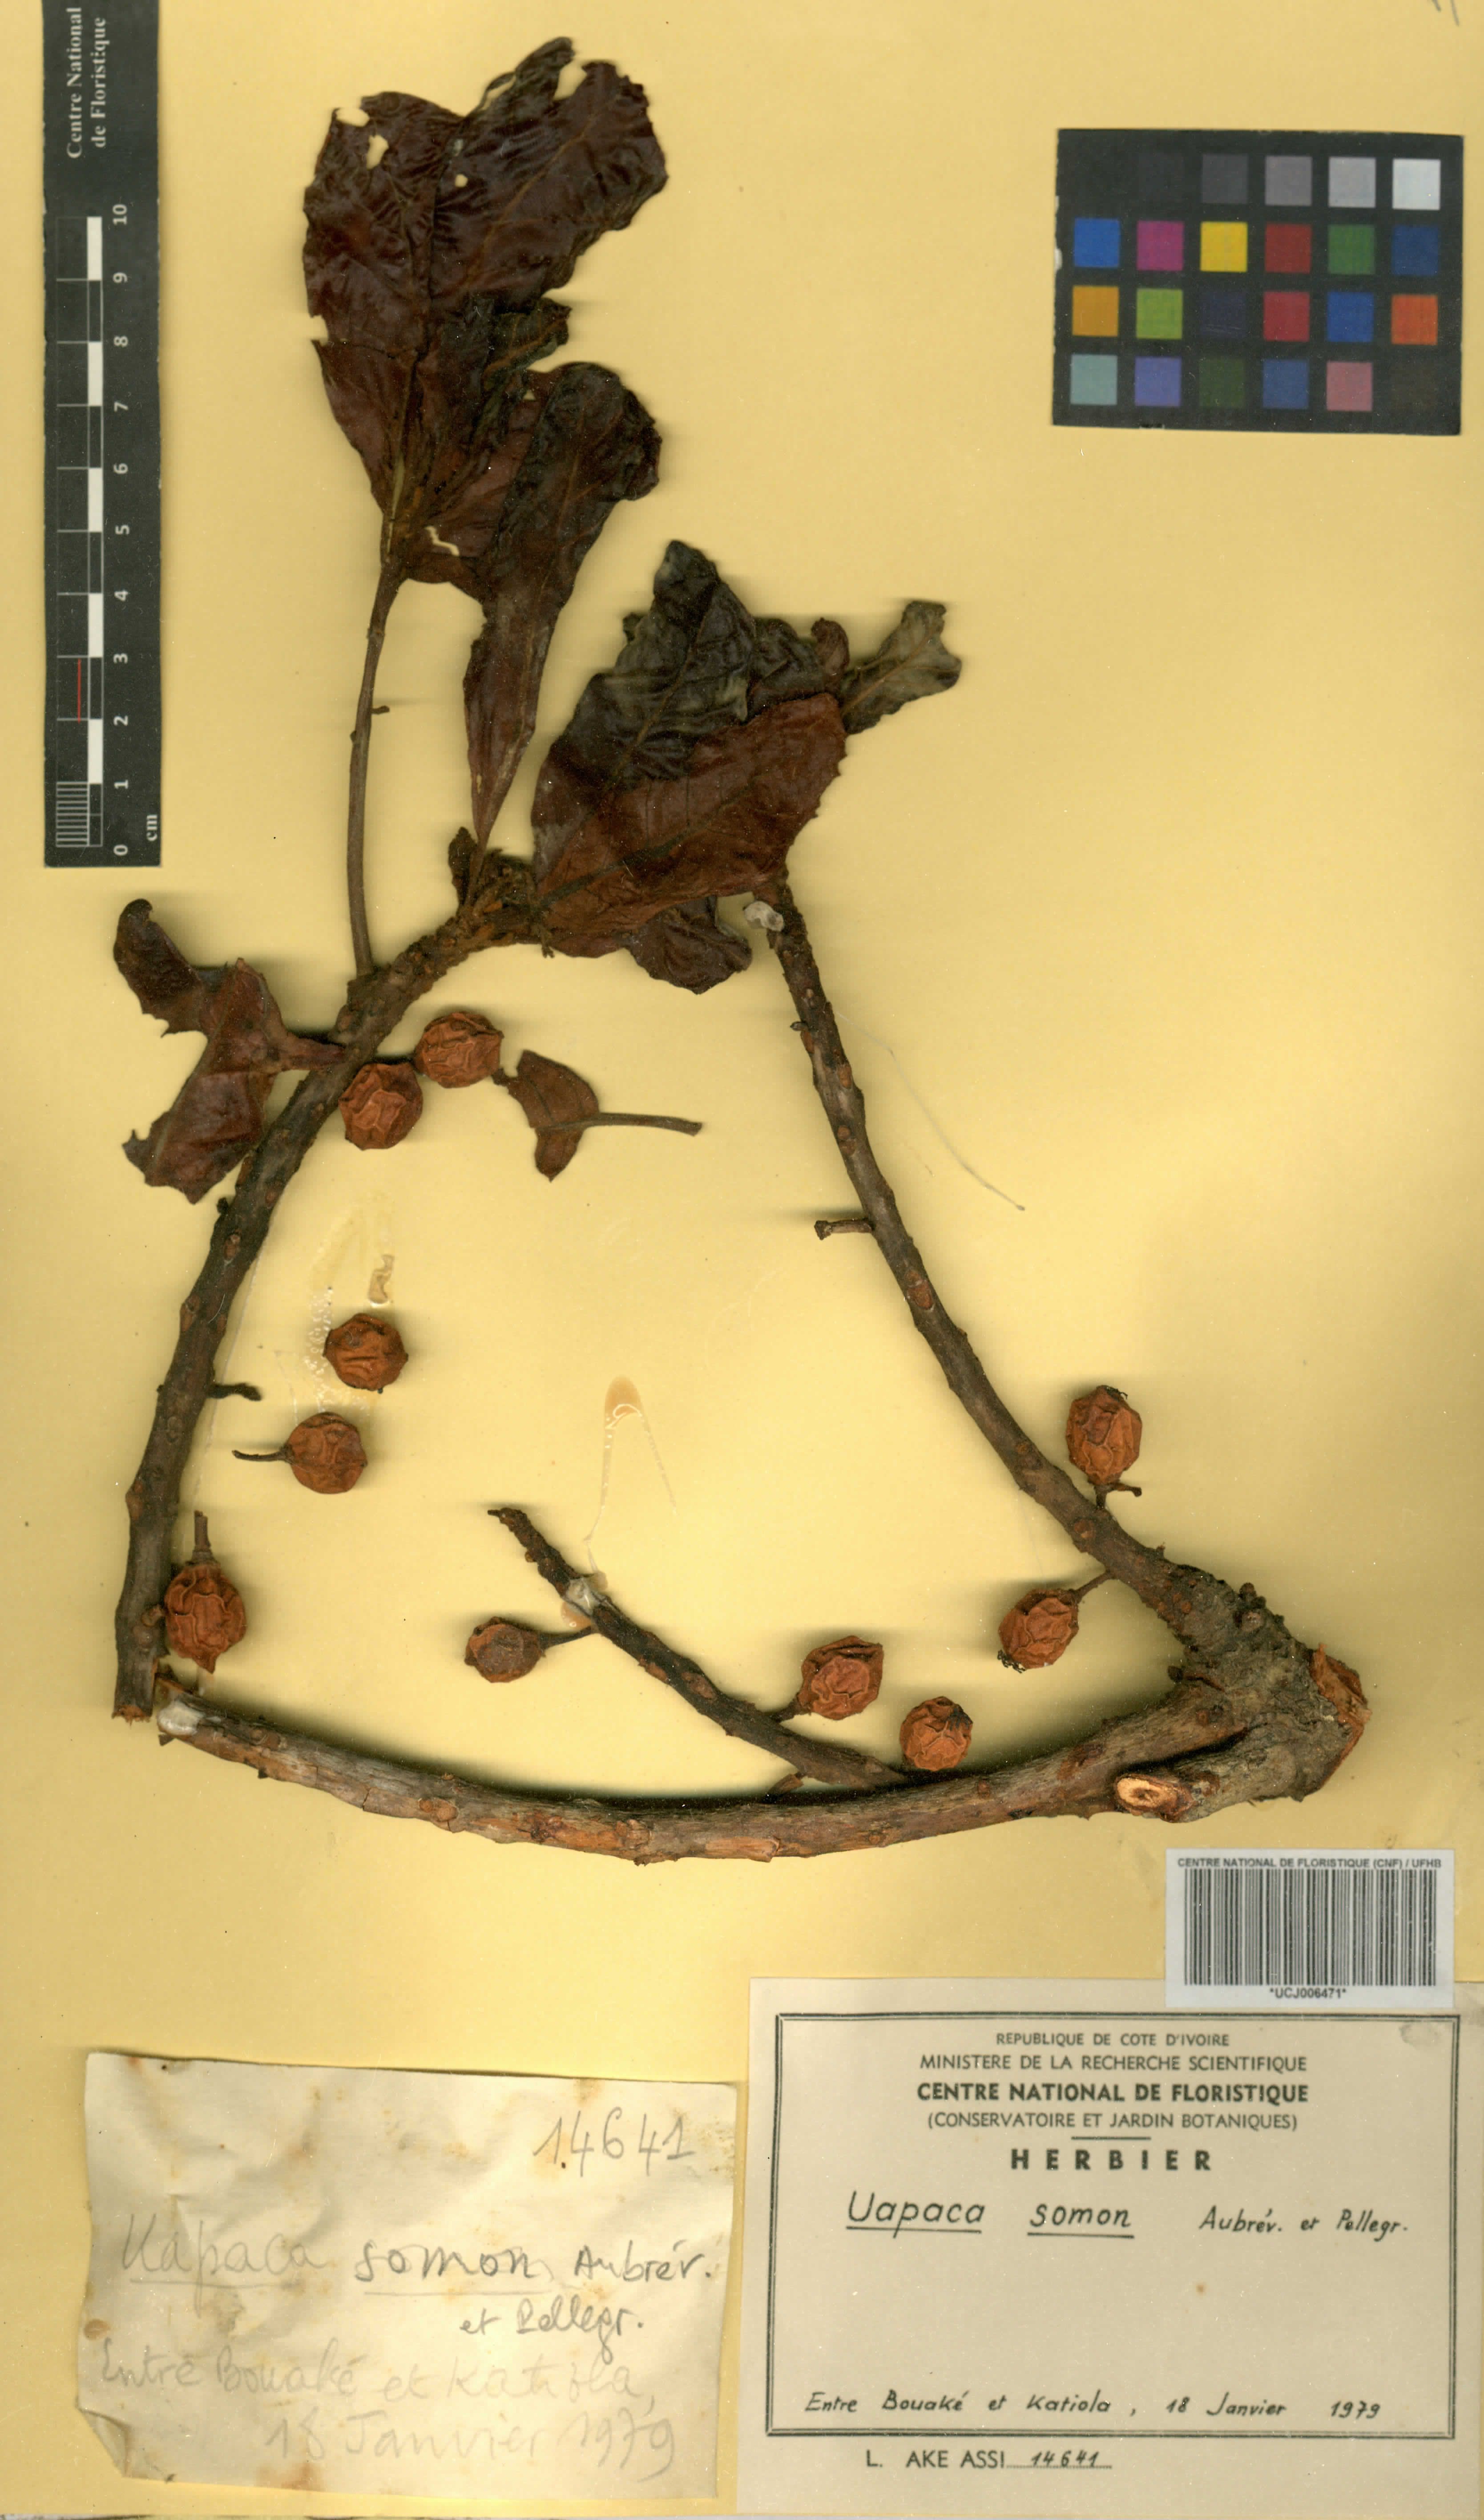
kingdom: Plantae
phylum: Tracheophyta
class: Magnoliopsida
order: Malpighiales
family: Phyllanthaceae
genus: Uapaca
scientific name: Uapaca togoensis
